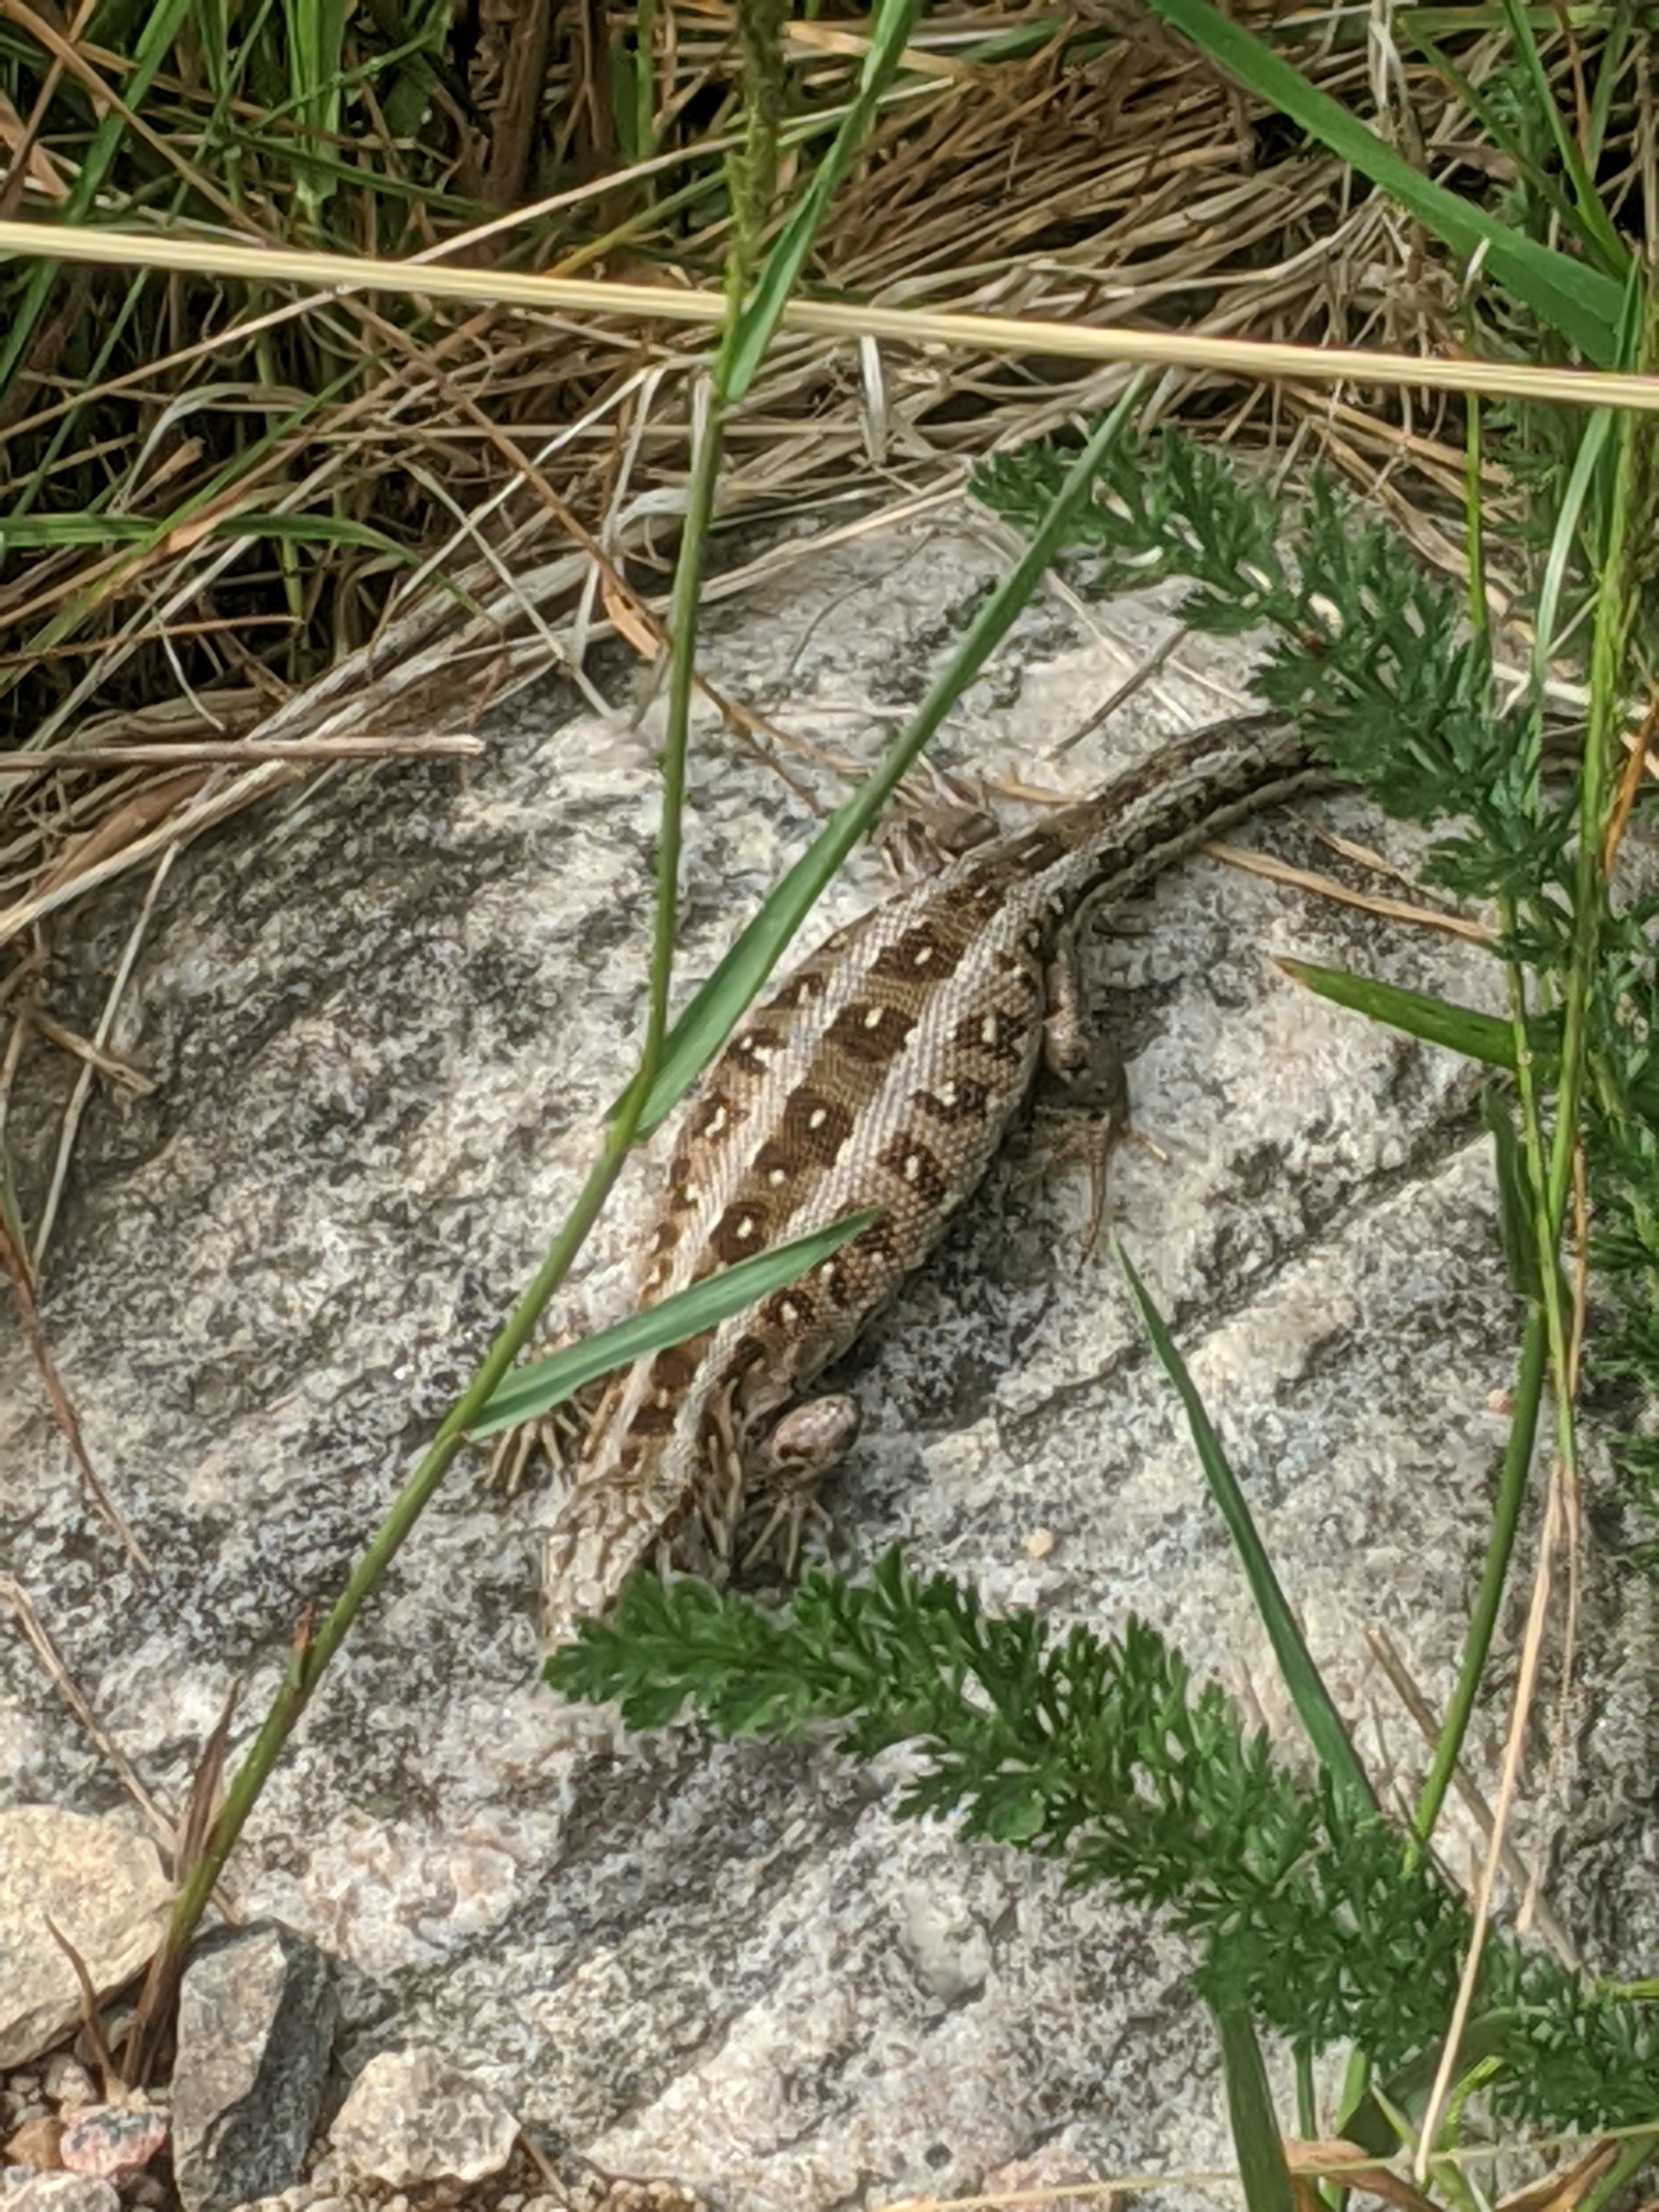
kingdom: Animalia
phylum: Chordata
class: Squamata
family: Lacertidae
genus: Lacerta
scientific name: Lacerta agilis
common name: Markfirben
